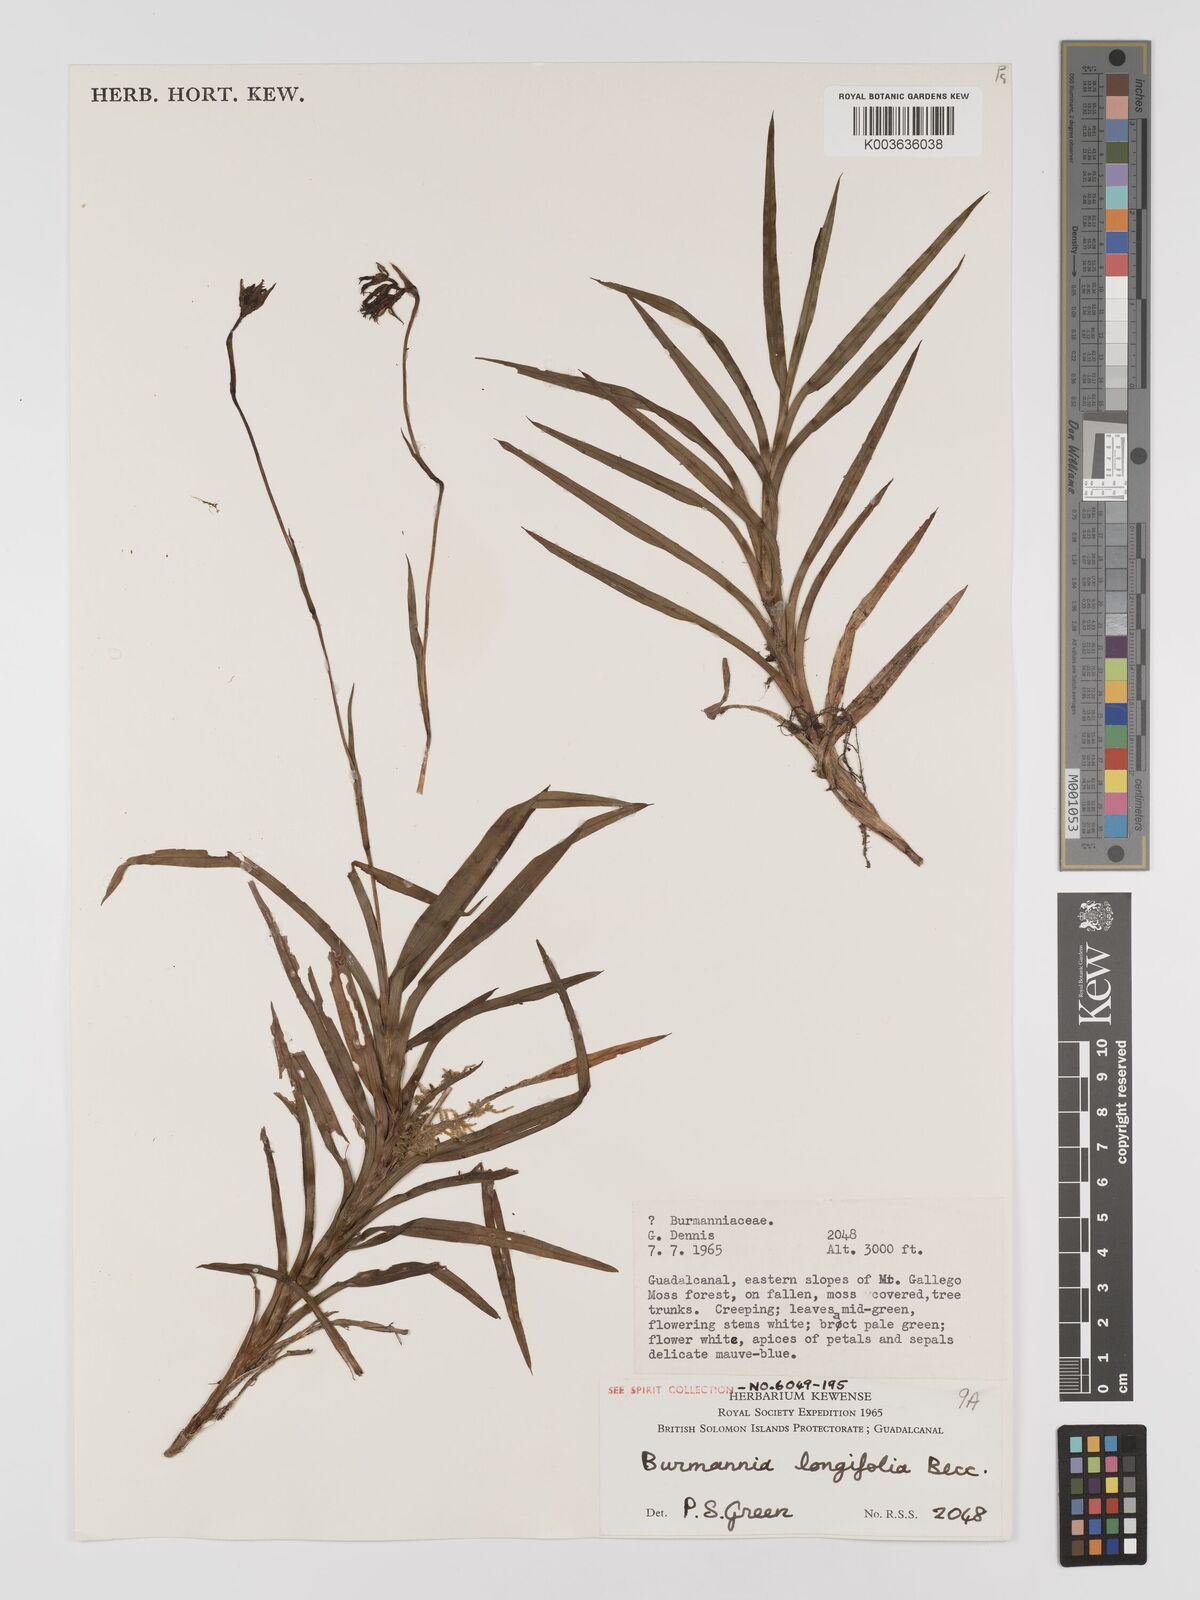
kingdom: Plantae
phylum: Tracheophyta
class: Liliopsida
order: Dioscoreales
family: Burmanniaceae
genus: Burmannia
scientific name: Burmannia longifolia
